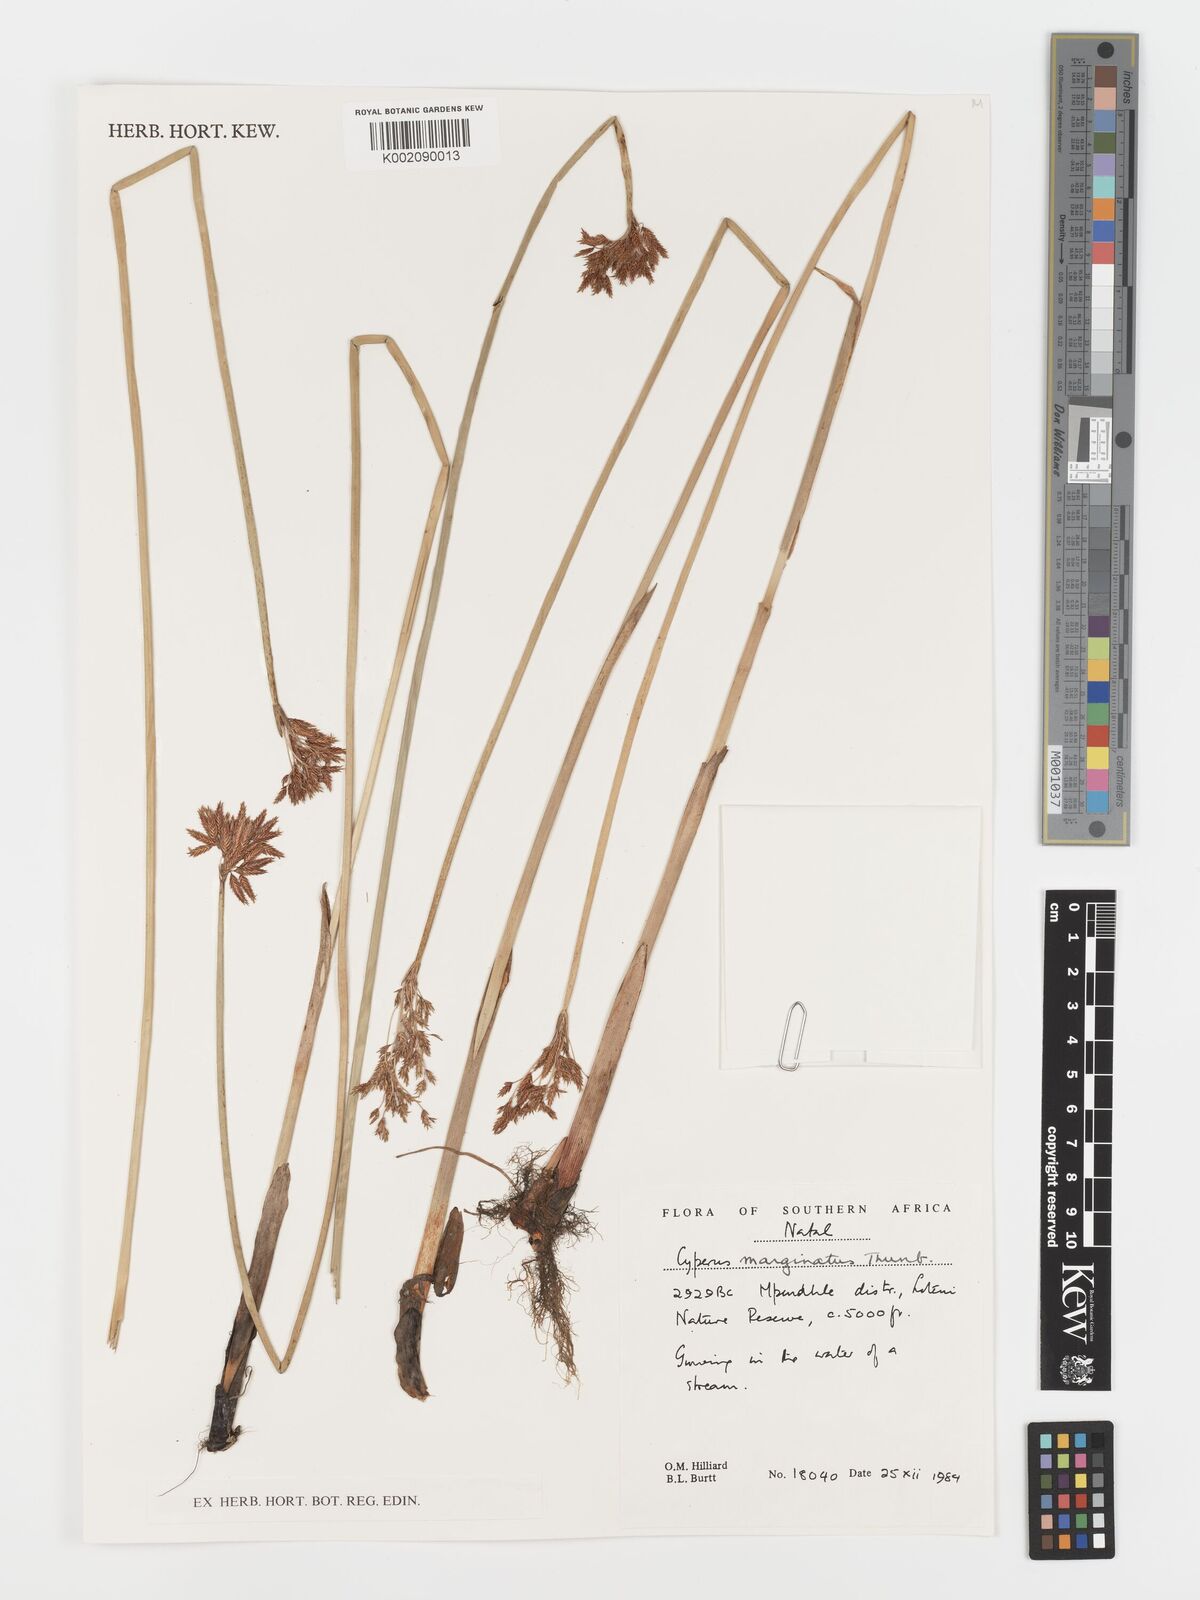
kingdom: Plantae
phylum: Tracheophyta
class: Liliopsida
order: Poales
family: Cyperaceae
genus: Cyperus
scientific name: Cyperus marginatus
